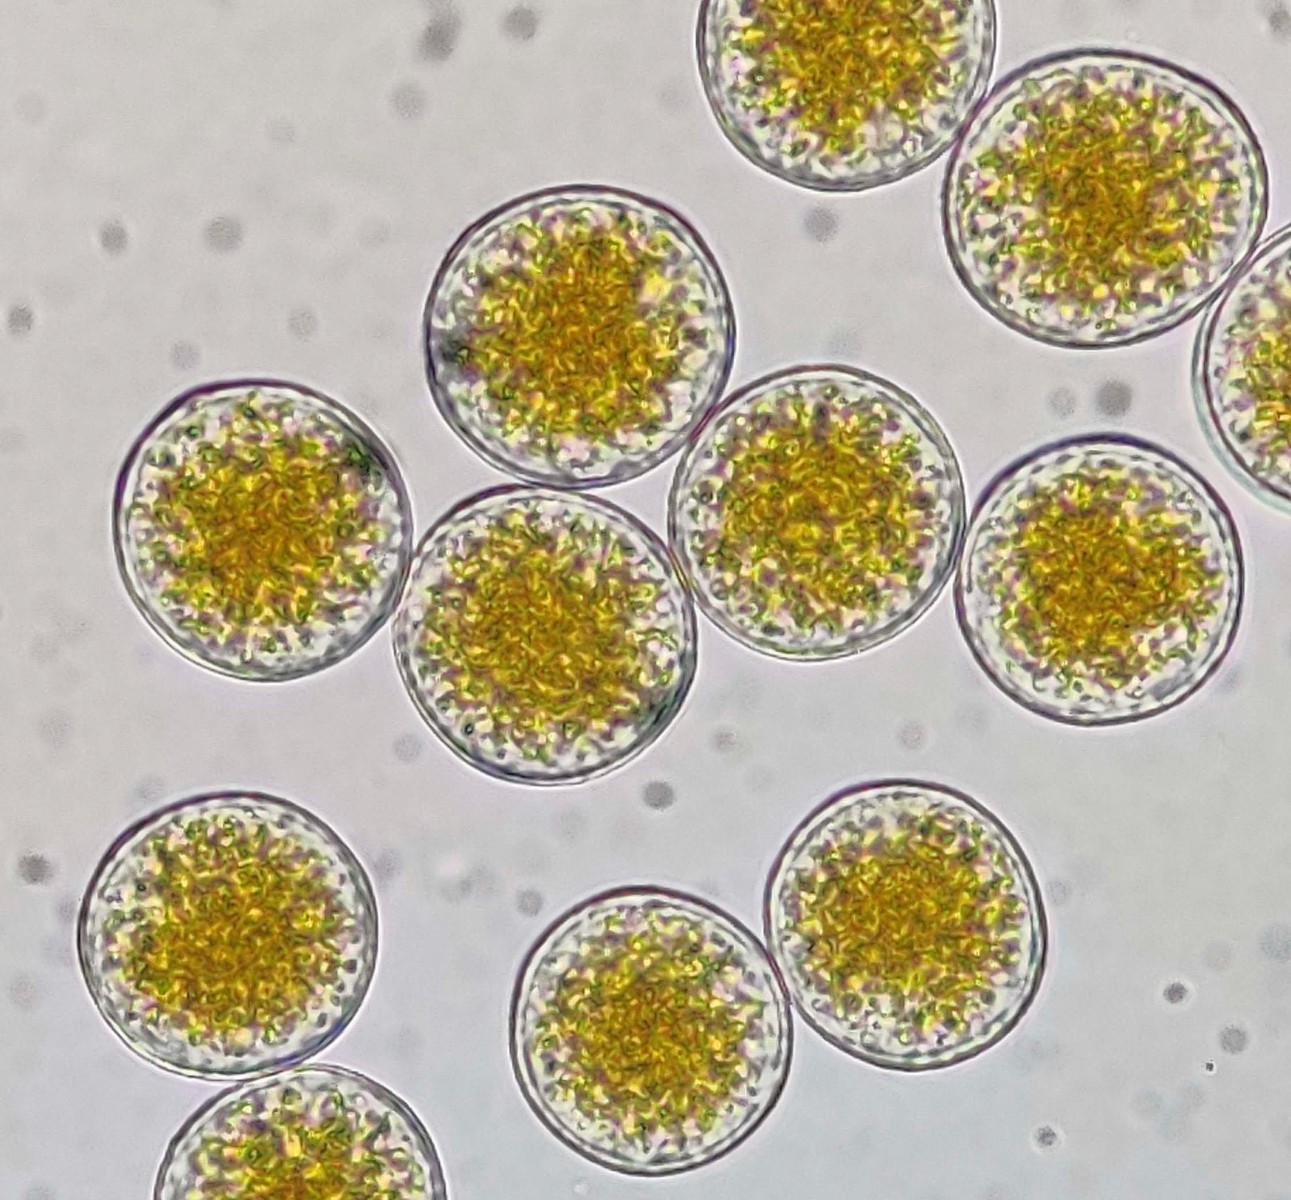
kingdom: Fungi
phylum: Basidiomycota
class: Pucciniomycetes
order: Pucciniales
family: Pucciniaceae
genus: Puccinia
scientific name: Puccinia porri
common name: Allium rust
